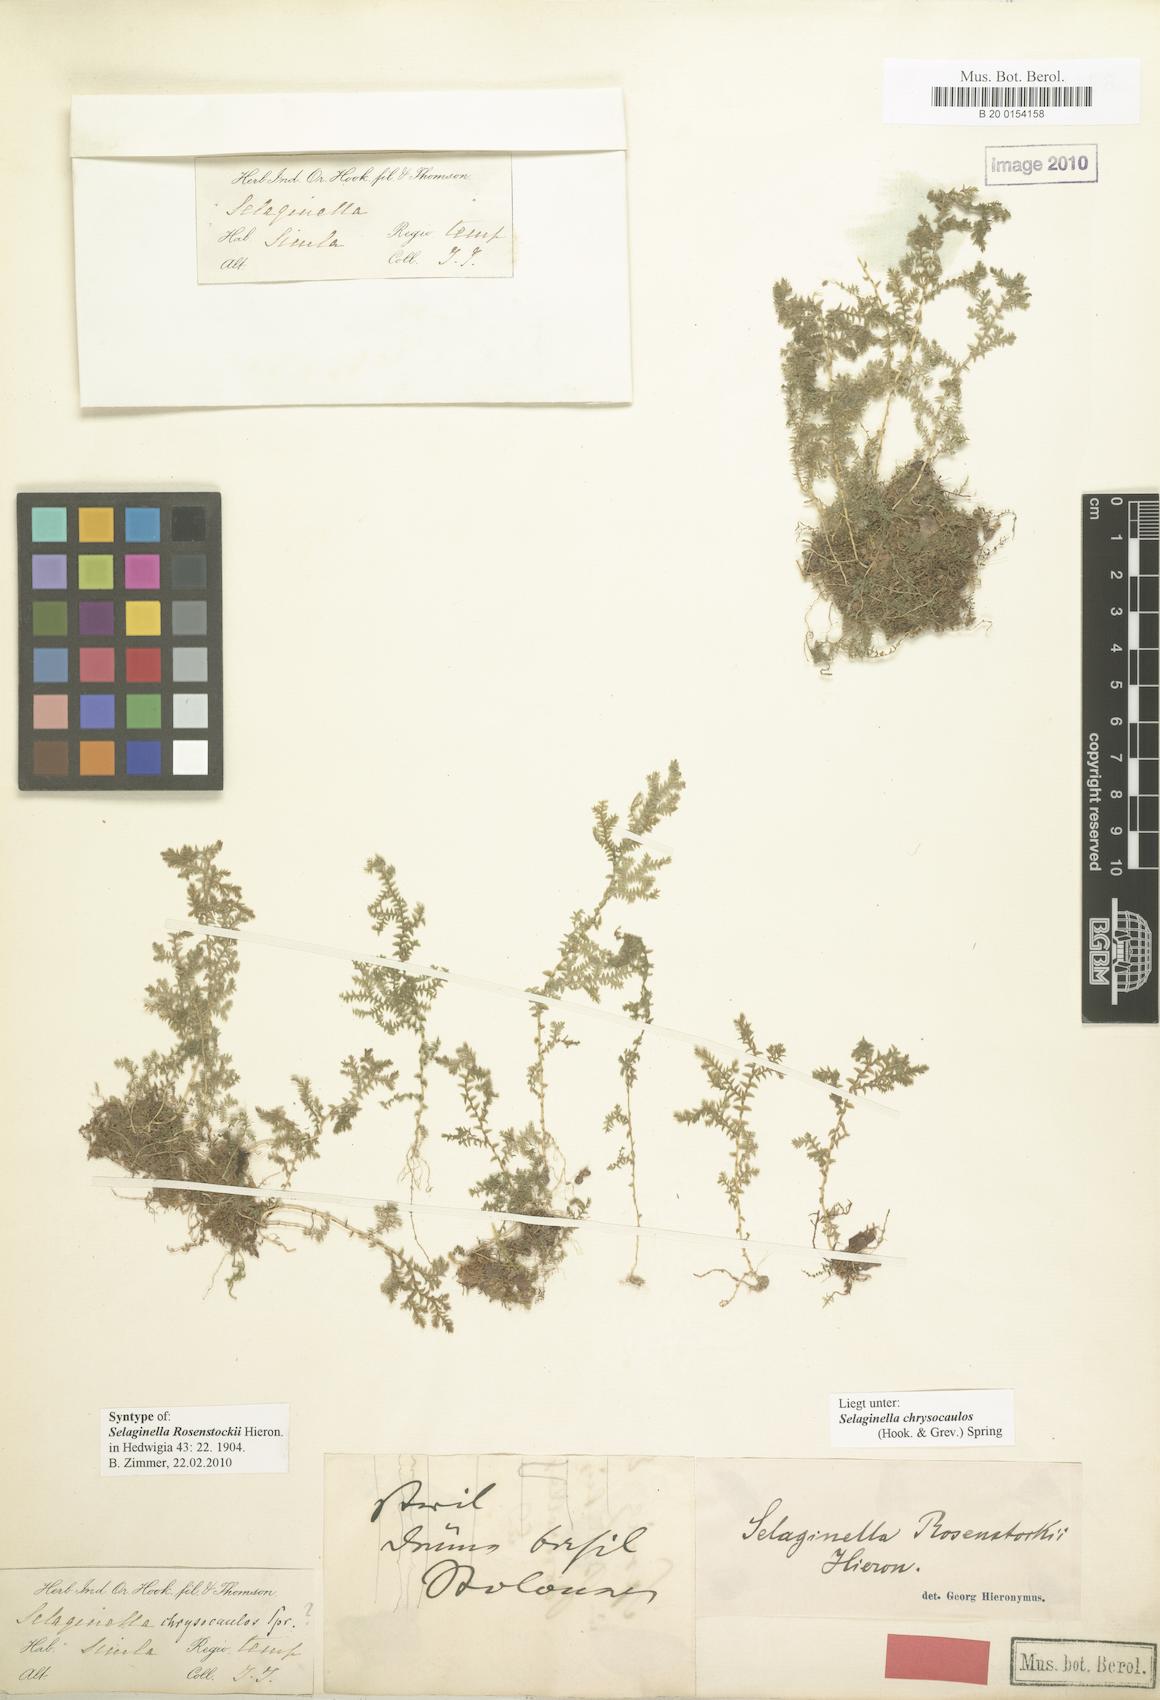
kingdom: Plantae
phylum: Tracheophyta
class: Lycopodiopsida
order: Selaginellales
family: Selaginellaceae
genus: Selaginella
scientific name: Selaginella chrysocaulos
